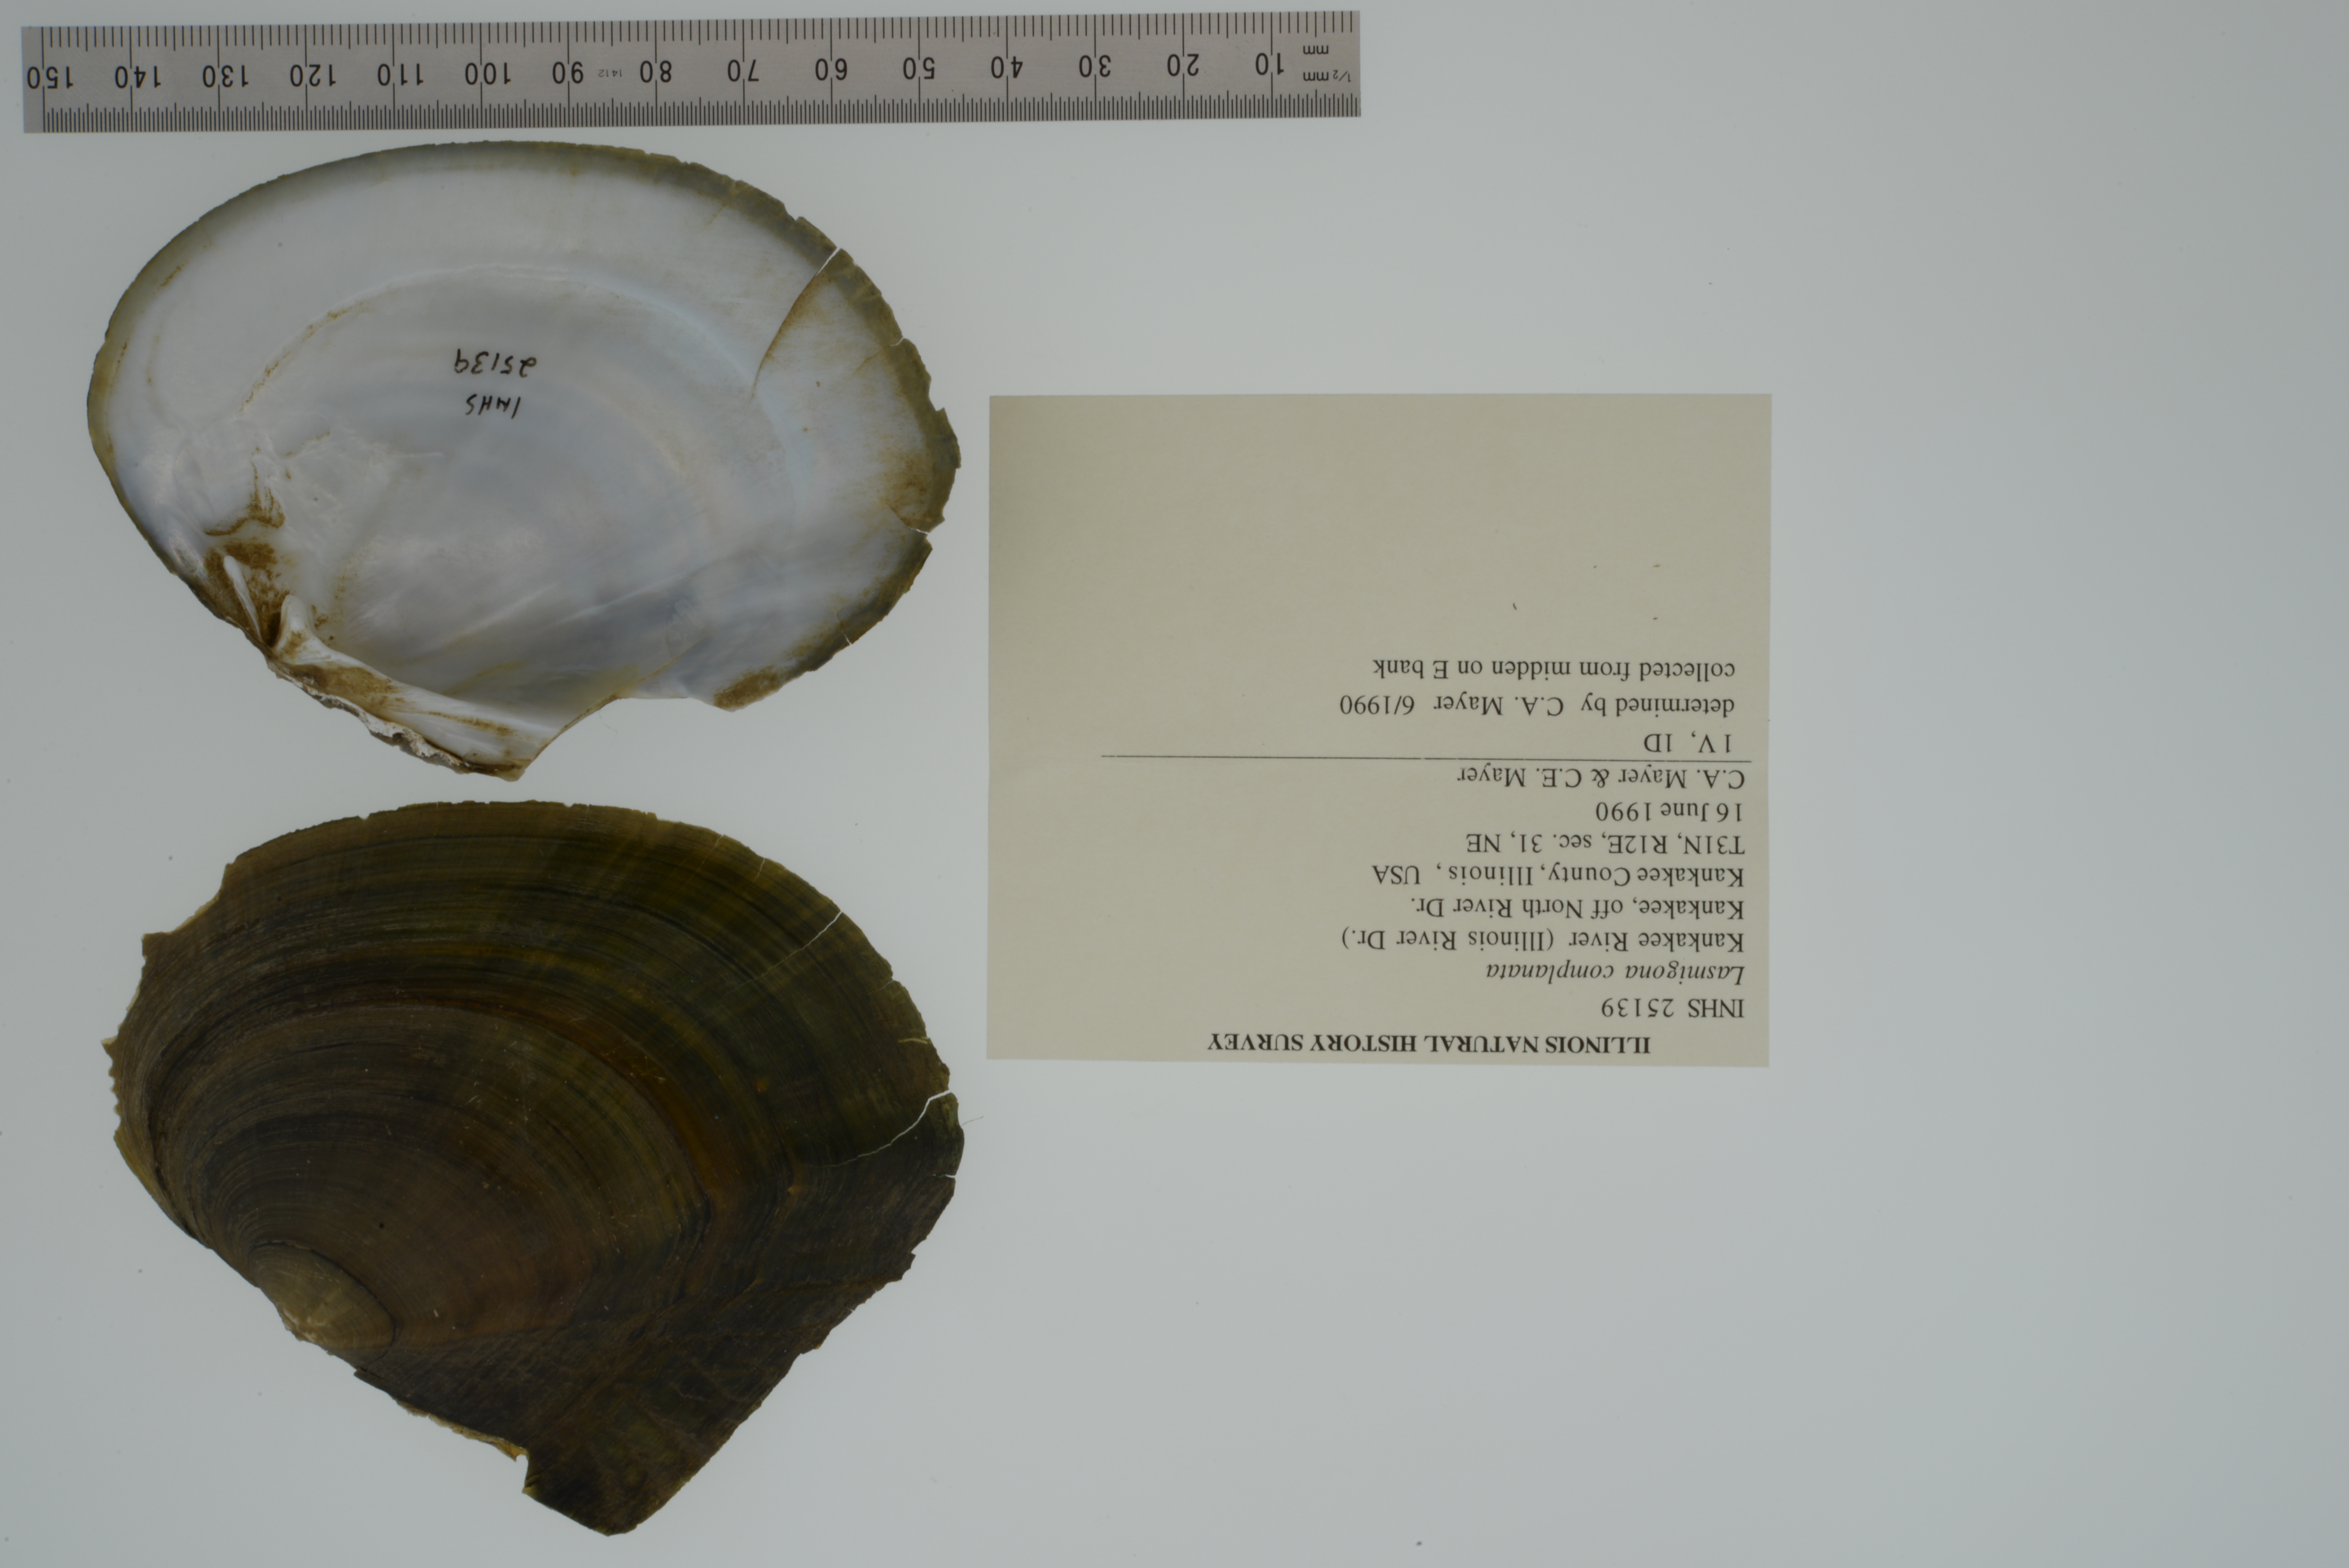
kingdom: Animalia
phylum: Mollusca
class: Bivalvia
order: Unionida
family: Unionidae
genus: Lasmigona
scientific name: Lasmigona complanata
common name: White heelsplitter
